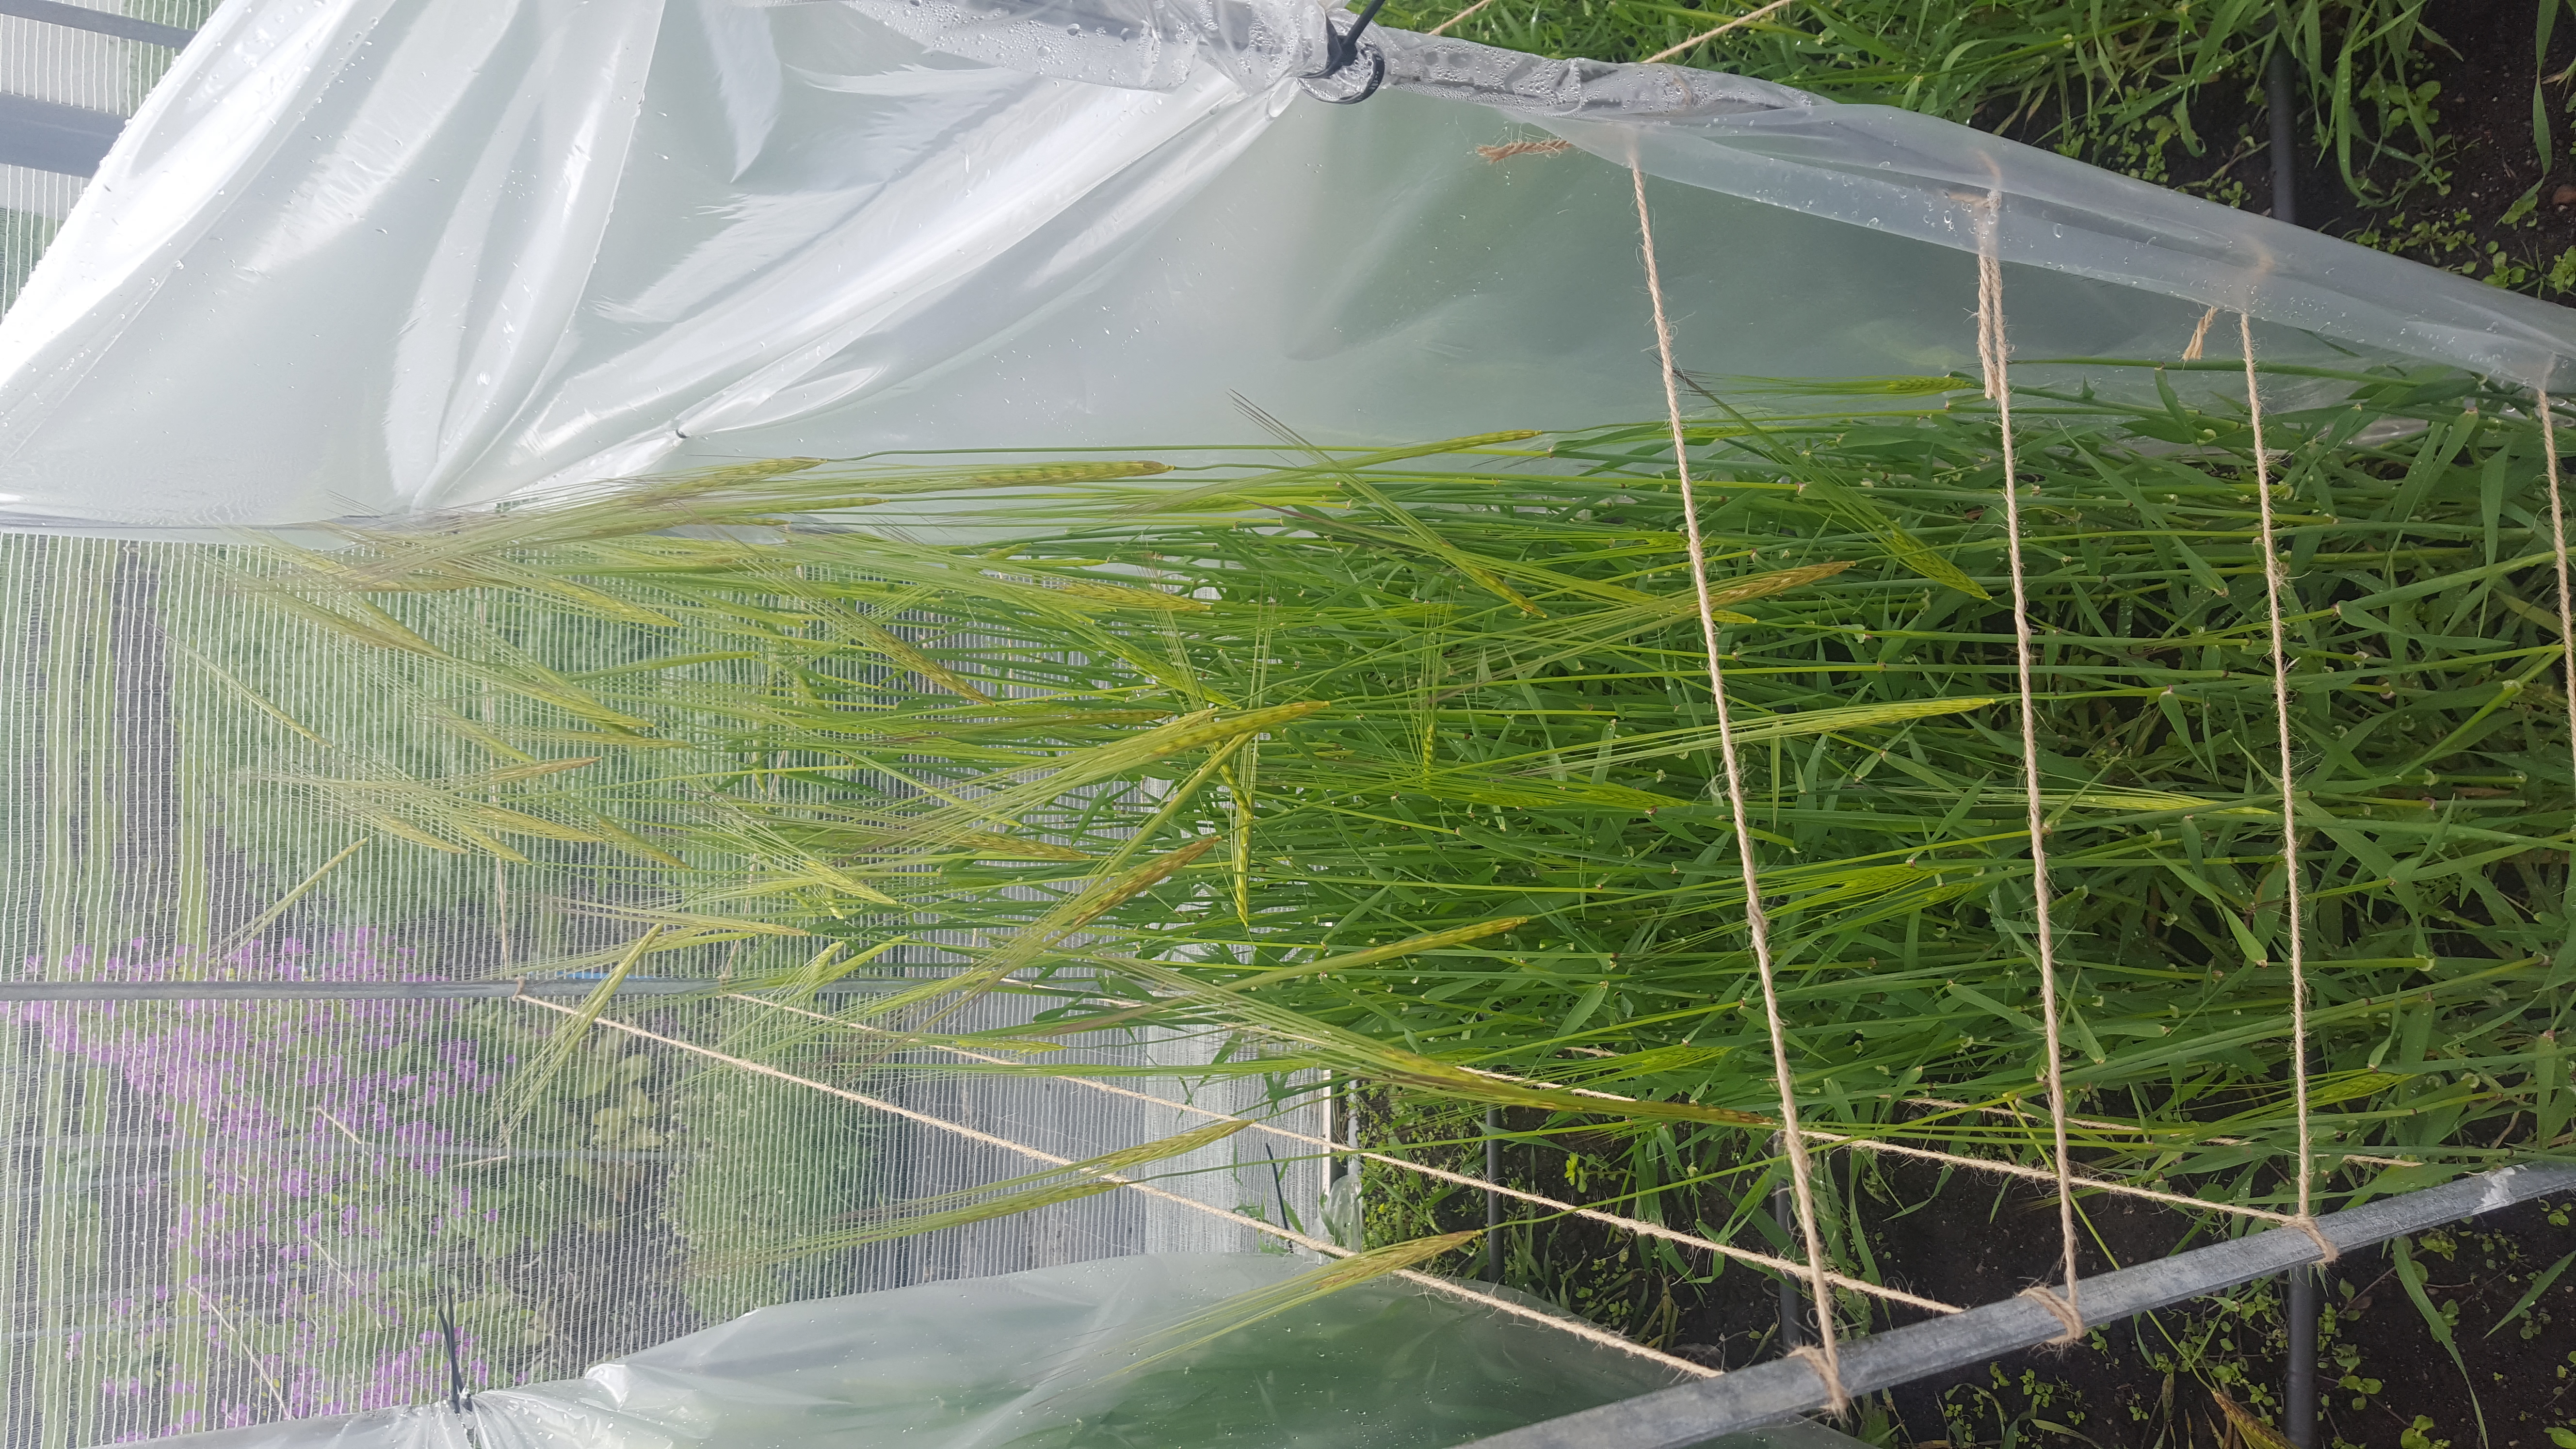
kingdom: Plantae
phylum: Tracheophyta
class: Liliopsida
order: Poales
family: Poaceae
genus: Hordeum
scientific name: Hordeum spontaneum
